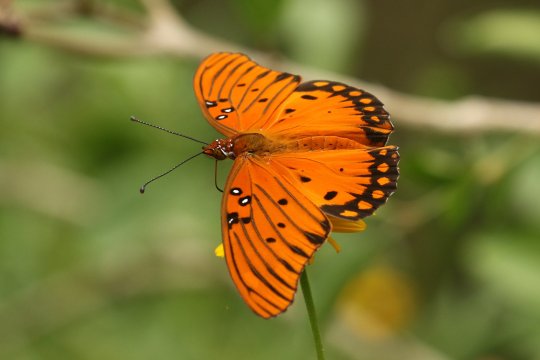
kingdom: Animalia
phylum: Arthropoda
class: Insecta
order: Lepidoptera
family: Nymphalidae
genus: Dione
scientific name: Dione vanillae
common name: Gulf Fritillary
